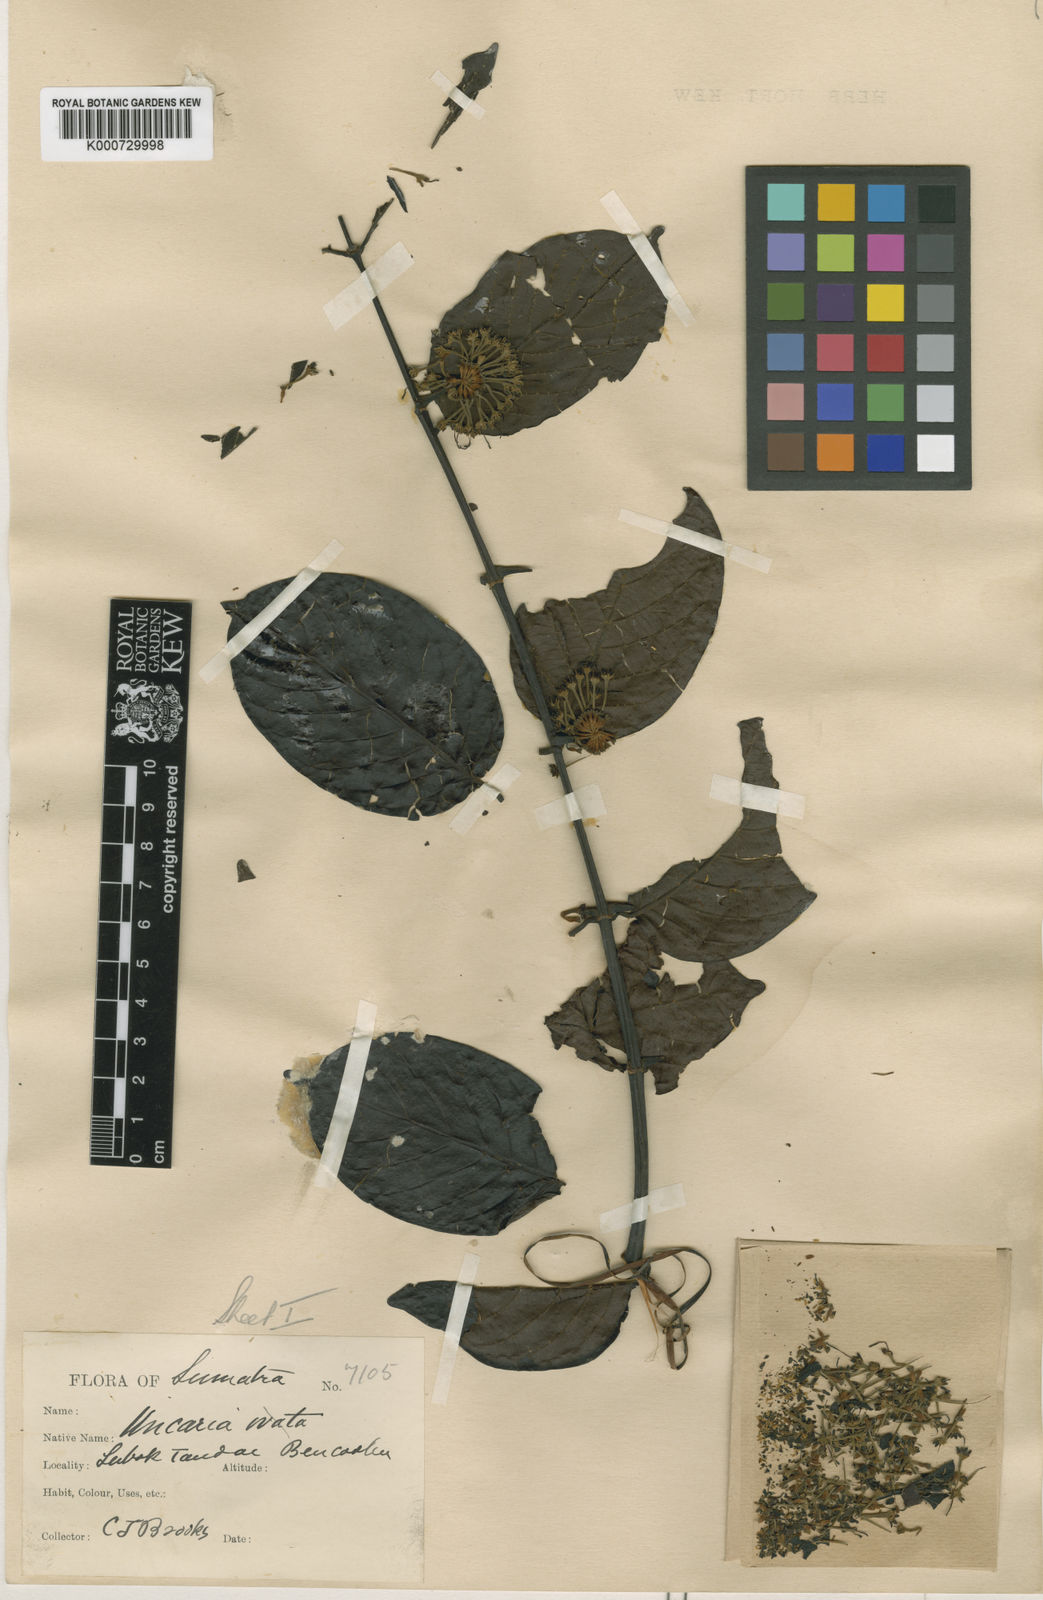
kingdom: Plantae
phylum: Tracheophyta
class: Magnoliopsida
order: Gentianales
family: Rubiaceae
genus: Uncaria
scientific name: Uncaria barbata
